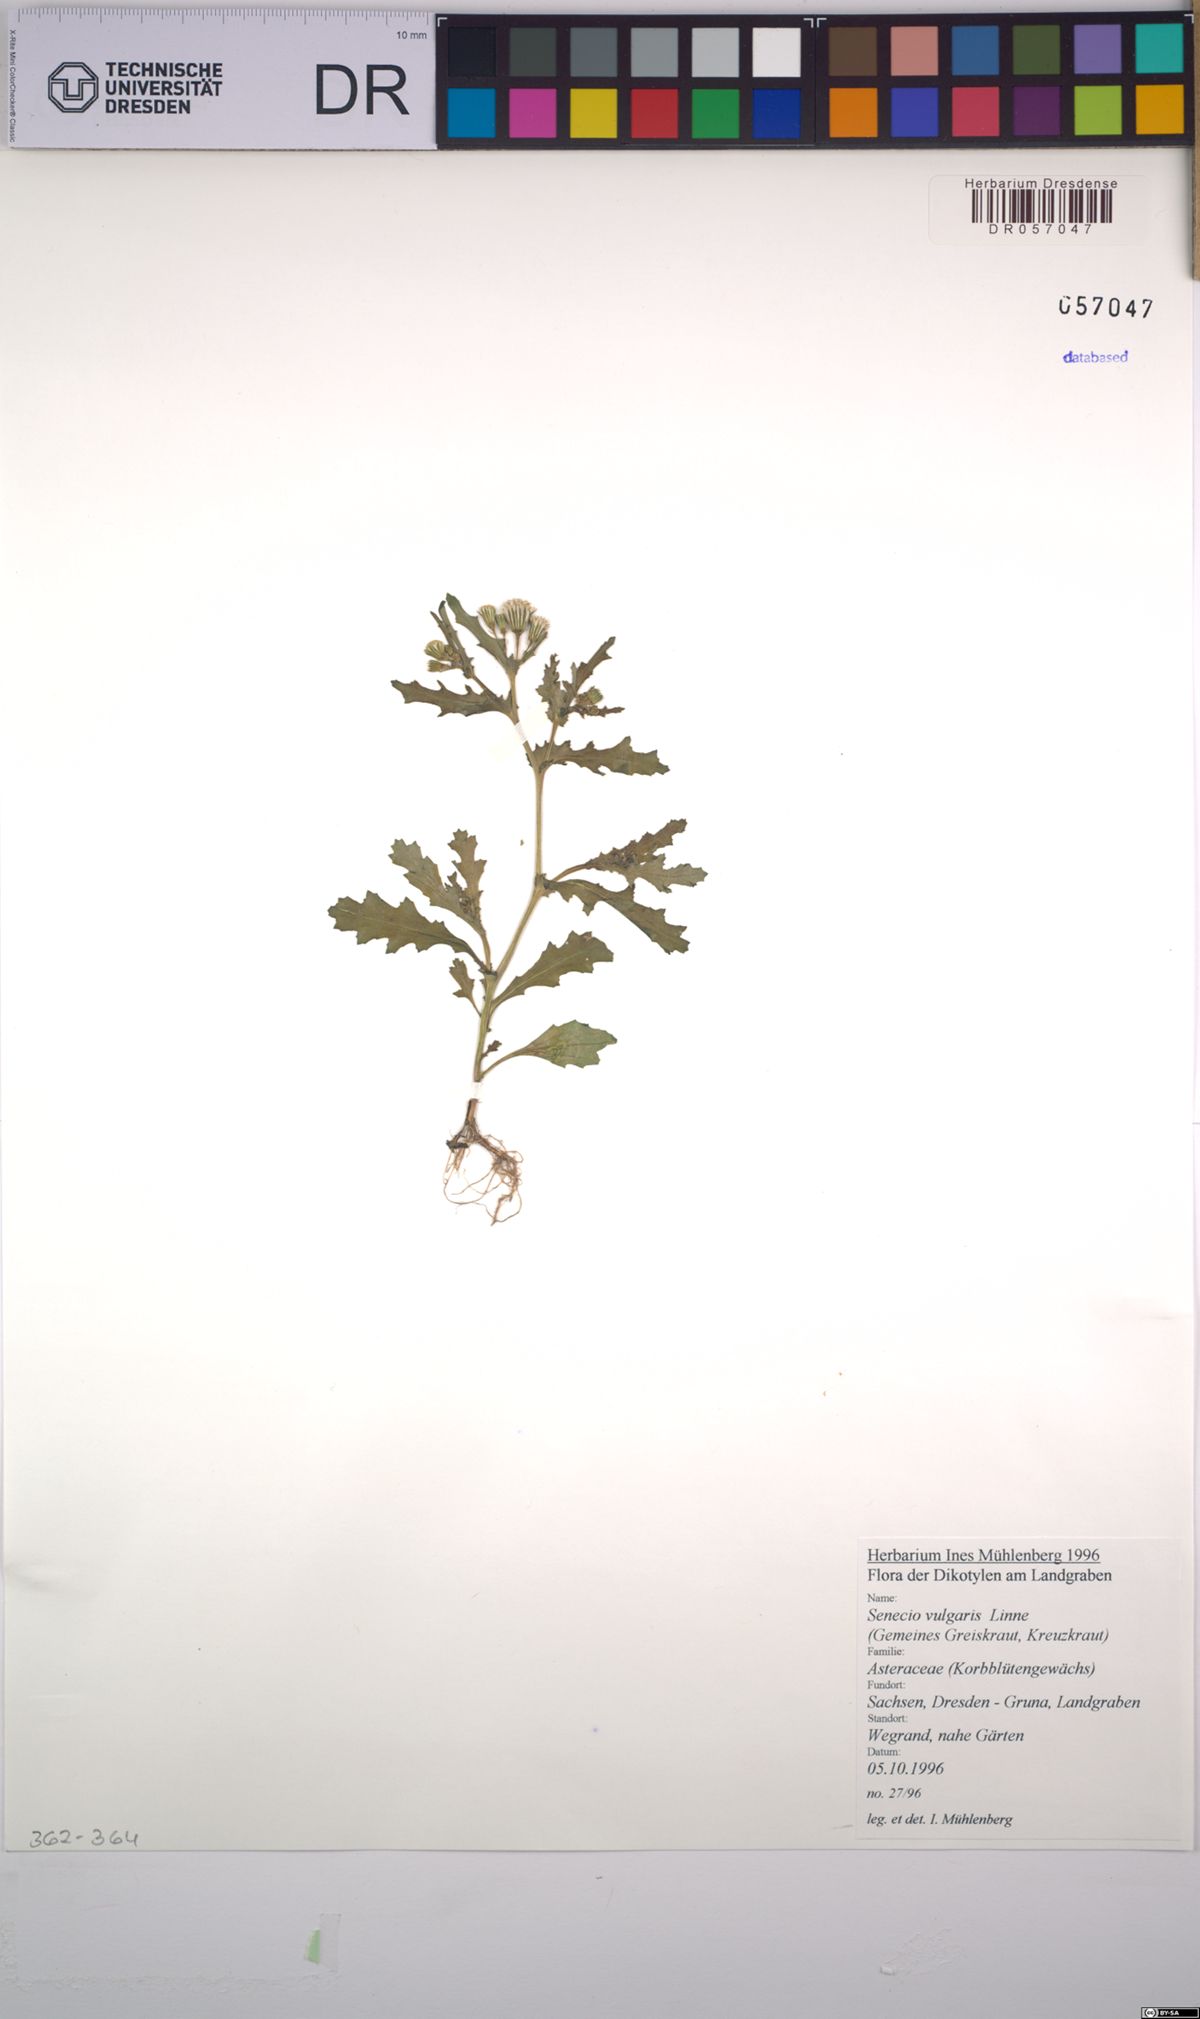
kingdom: Plantae
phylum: Tracheophyta
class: Magnoliopsida
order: Asterales
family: Asteraceae
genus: Senecio
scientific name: Senecio vulgaris
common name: Old-man-in-the-spring
